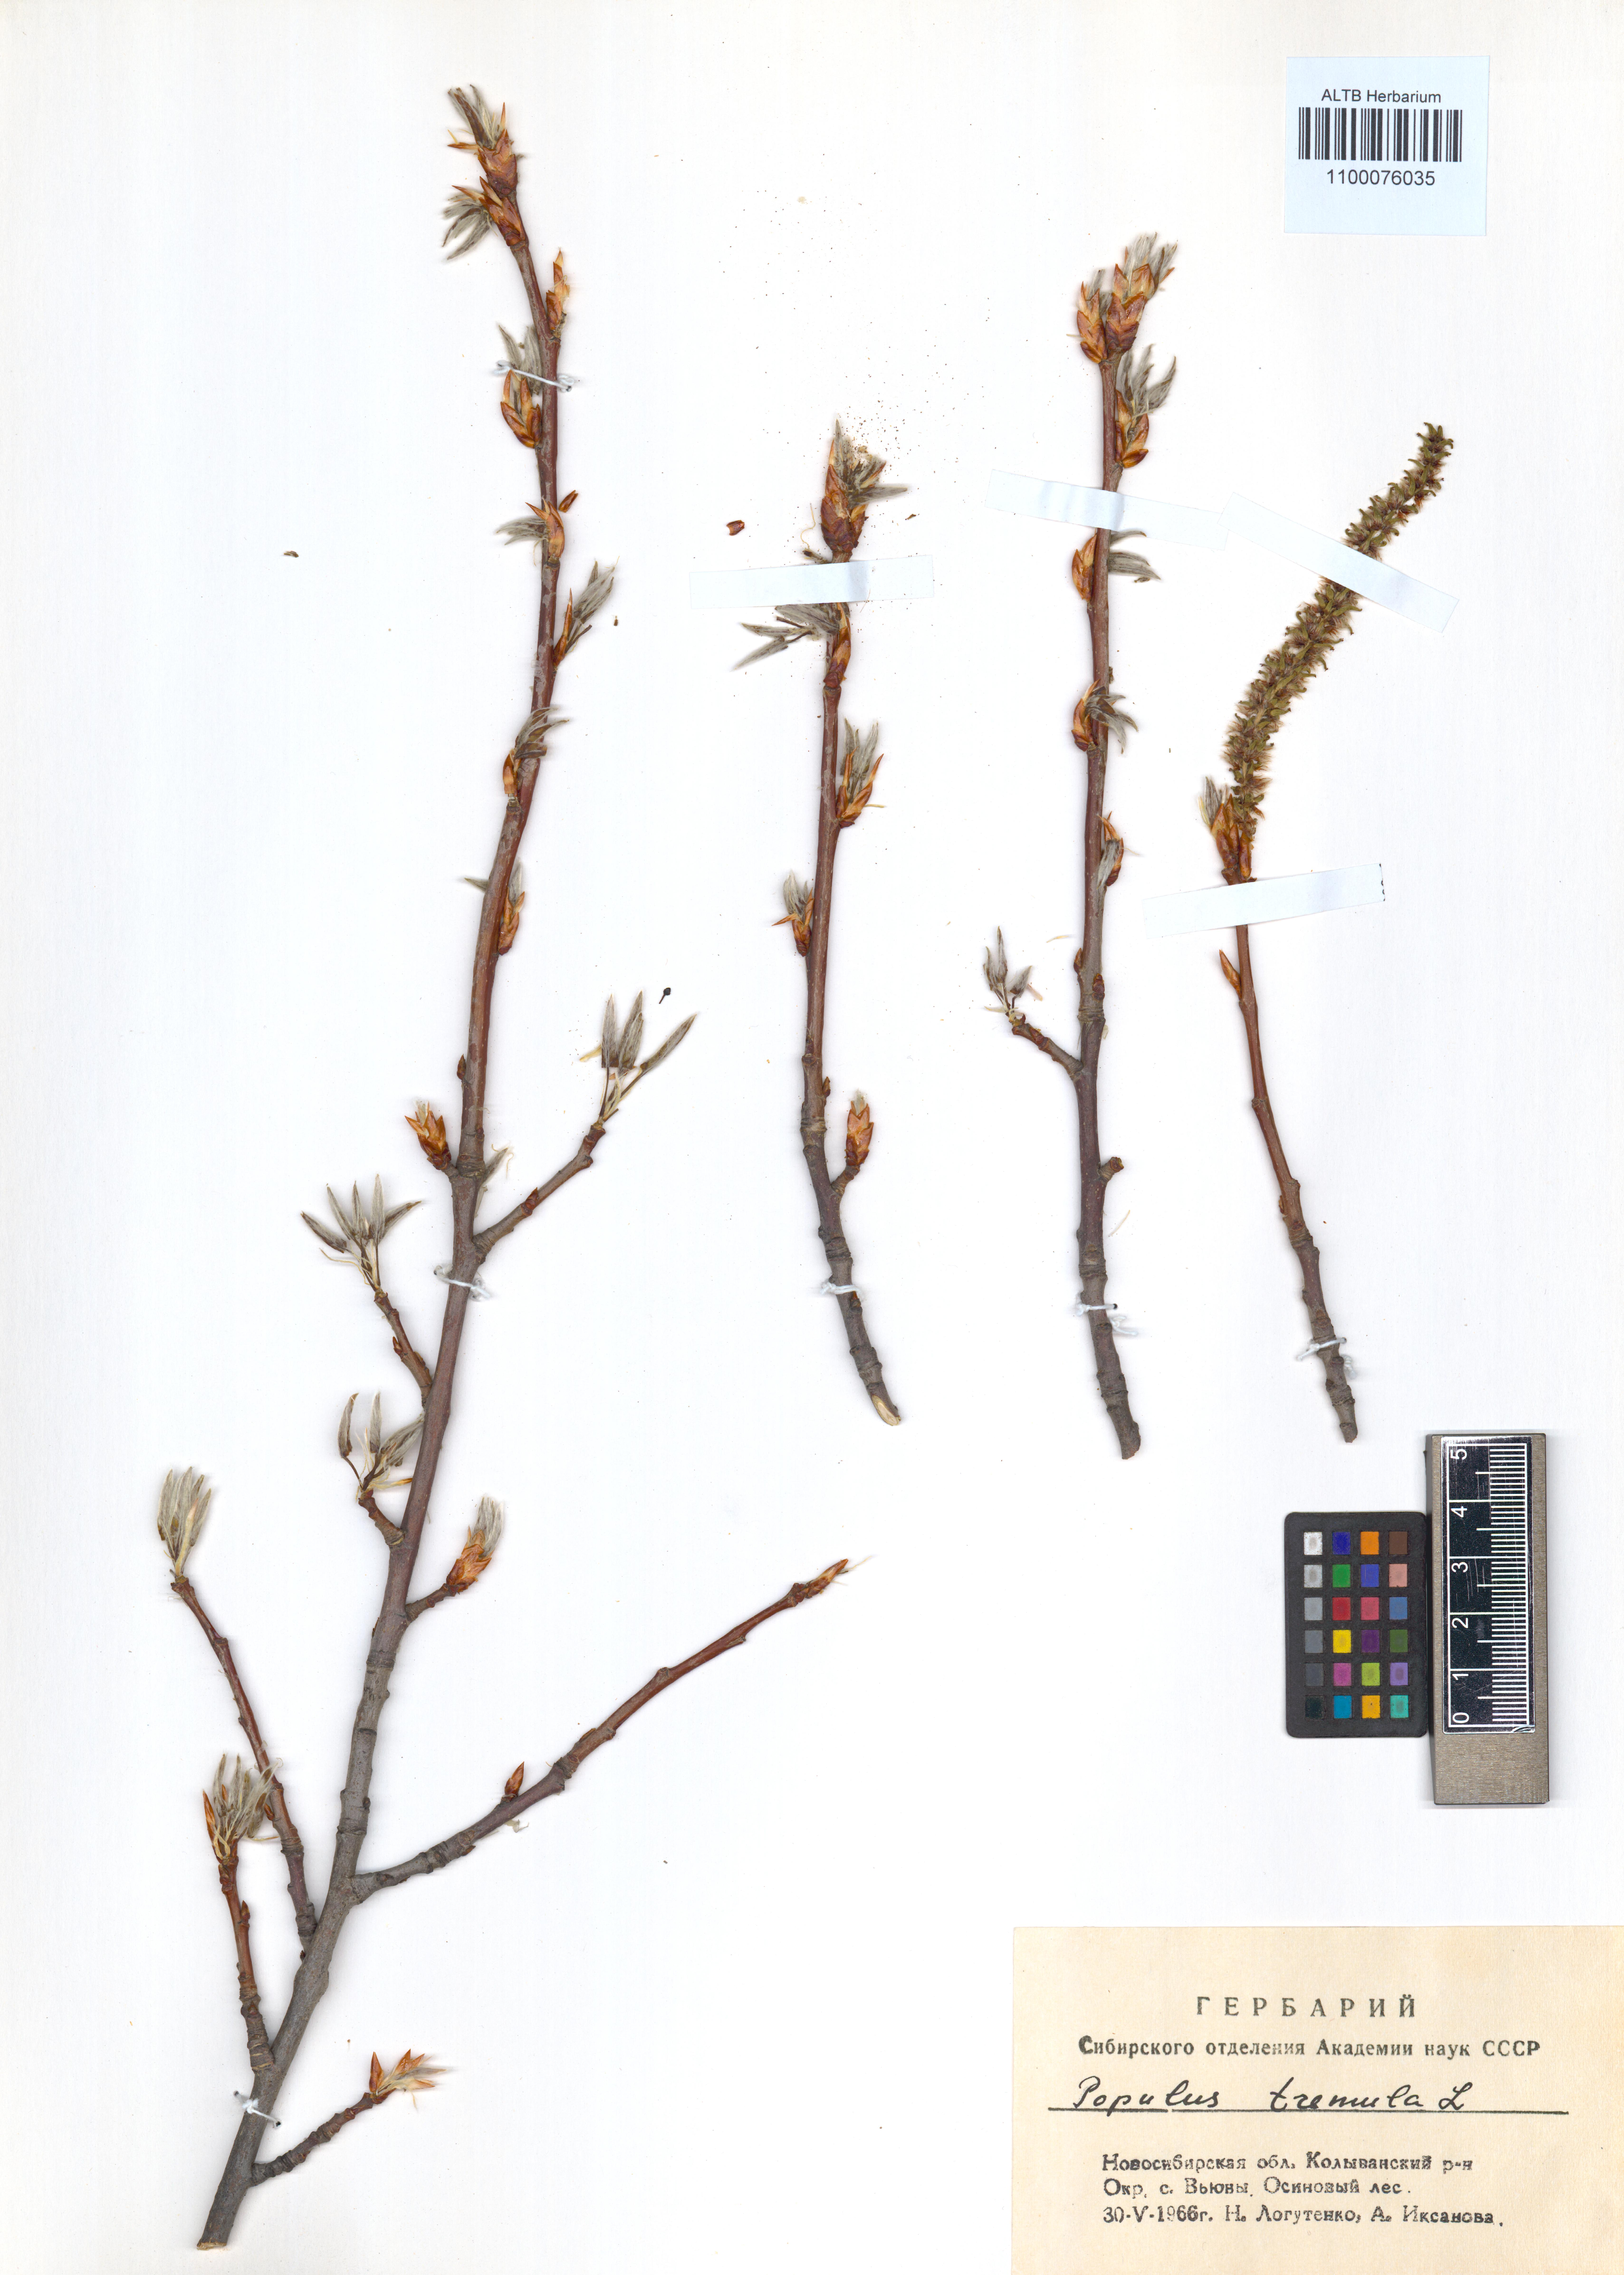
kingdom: Plantae
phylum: Tracheophyta
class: Magnoliopsida
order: Malpighiales
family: Salicaceae
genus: Populus
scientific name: Populus tremula
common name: European aspen
